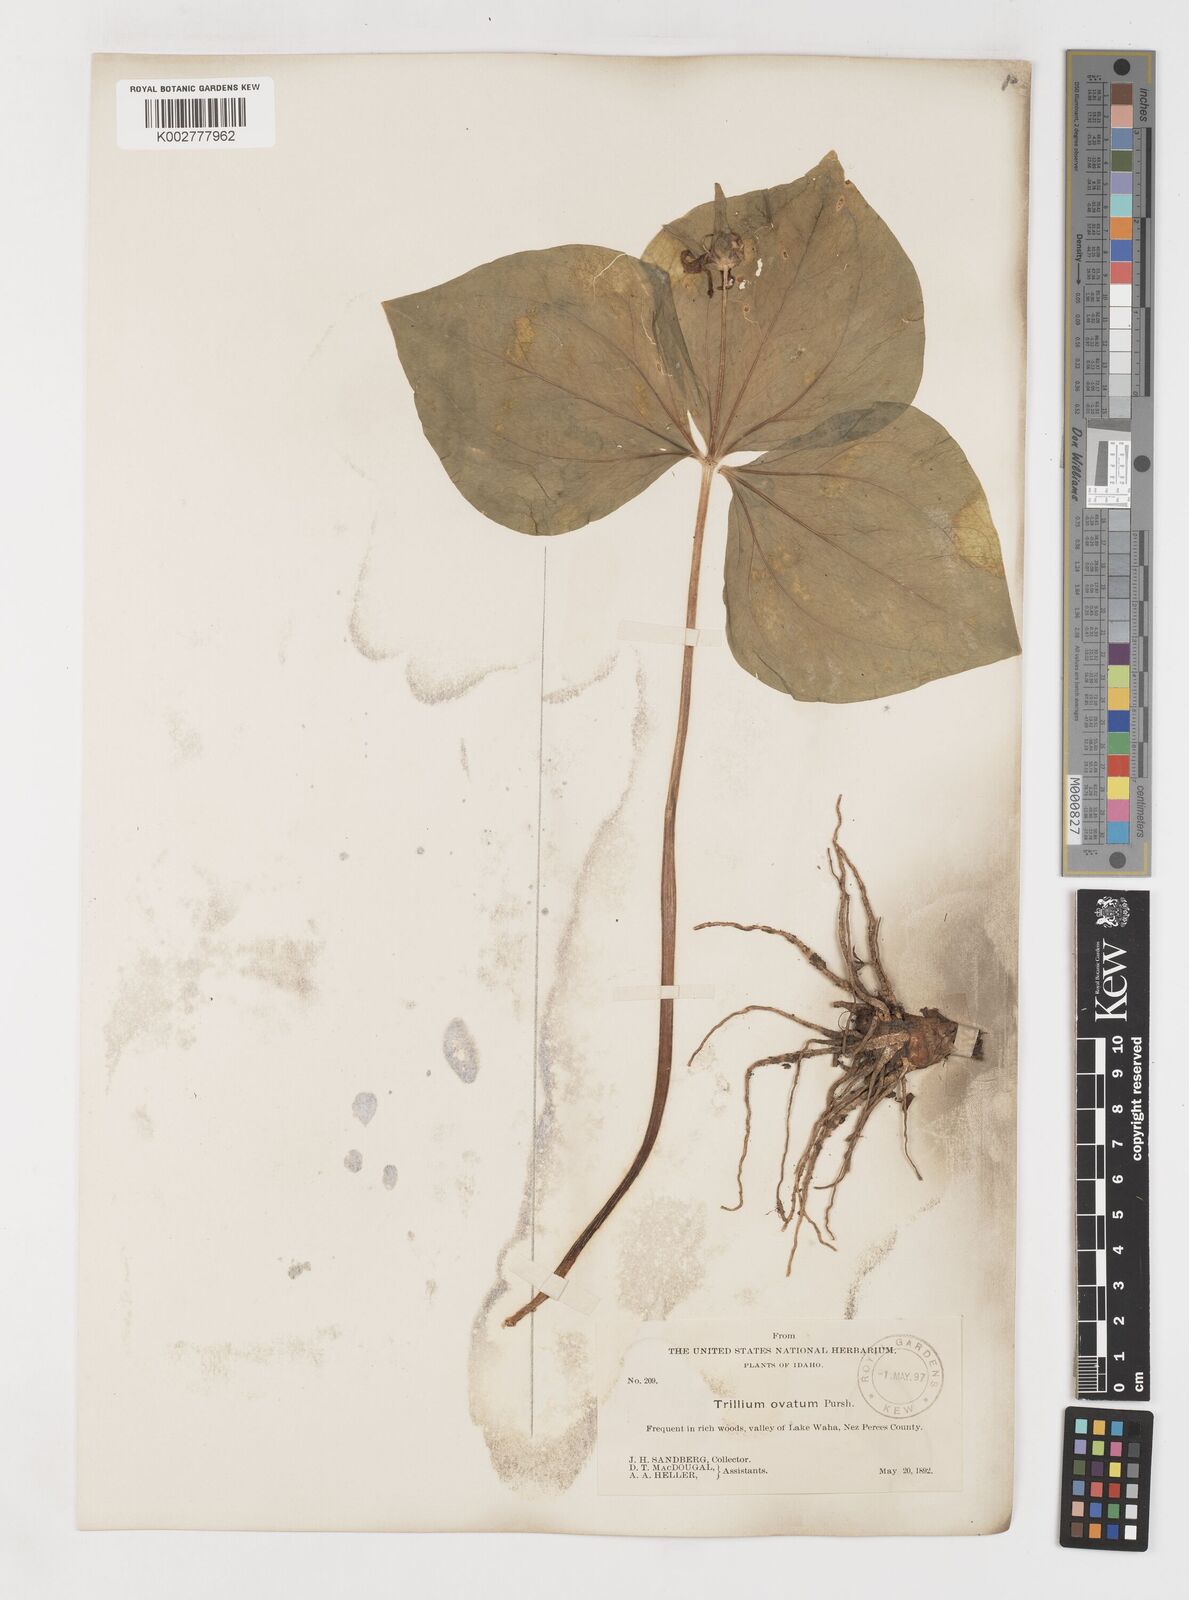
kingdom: Plantae
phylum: Tracheophyta
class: Liliopsida
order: Liliales
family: Melanthiaceae
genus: Trillium
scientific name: Trillium ovatum
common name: Pacific trillium
